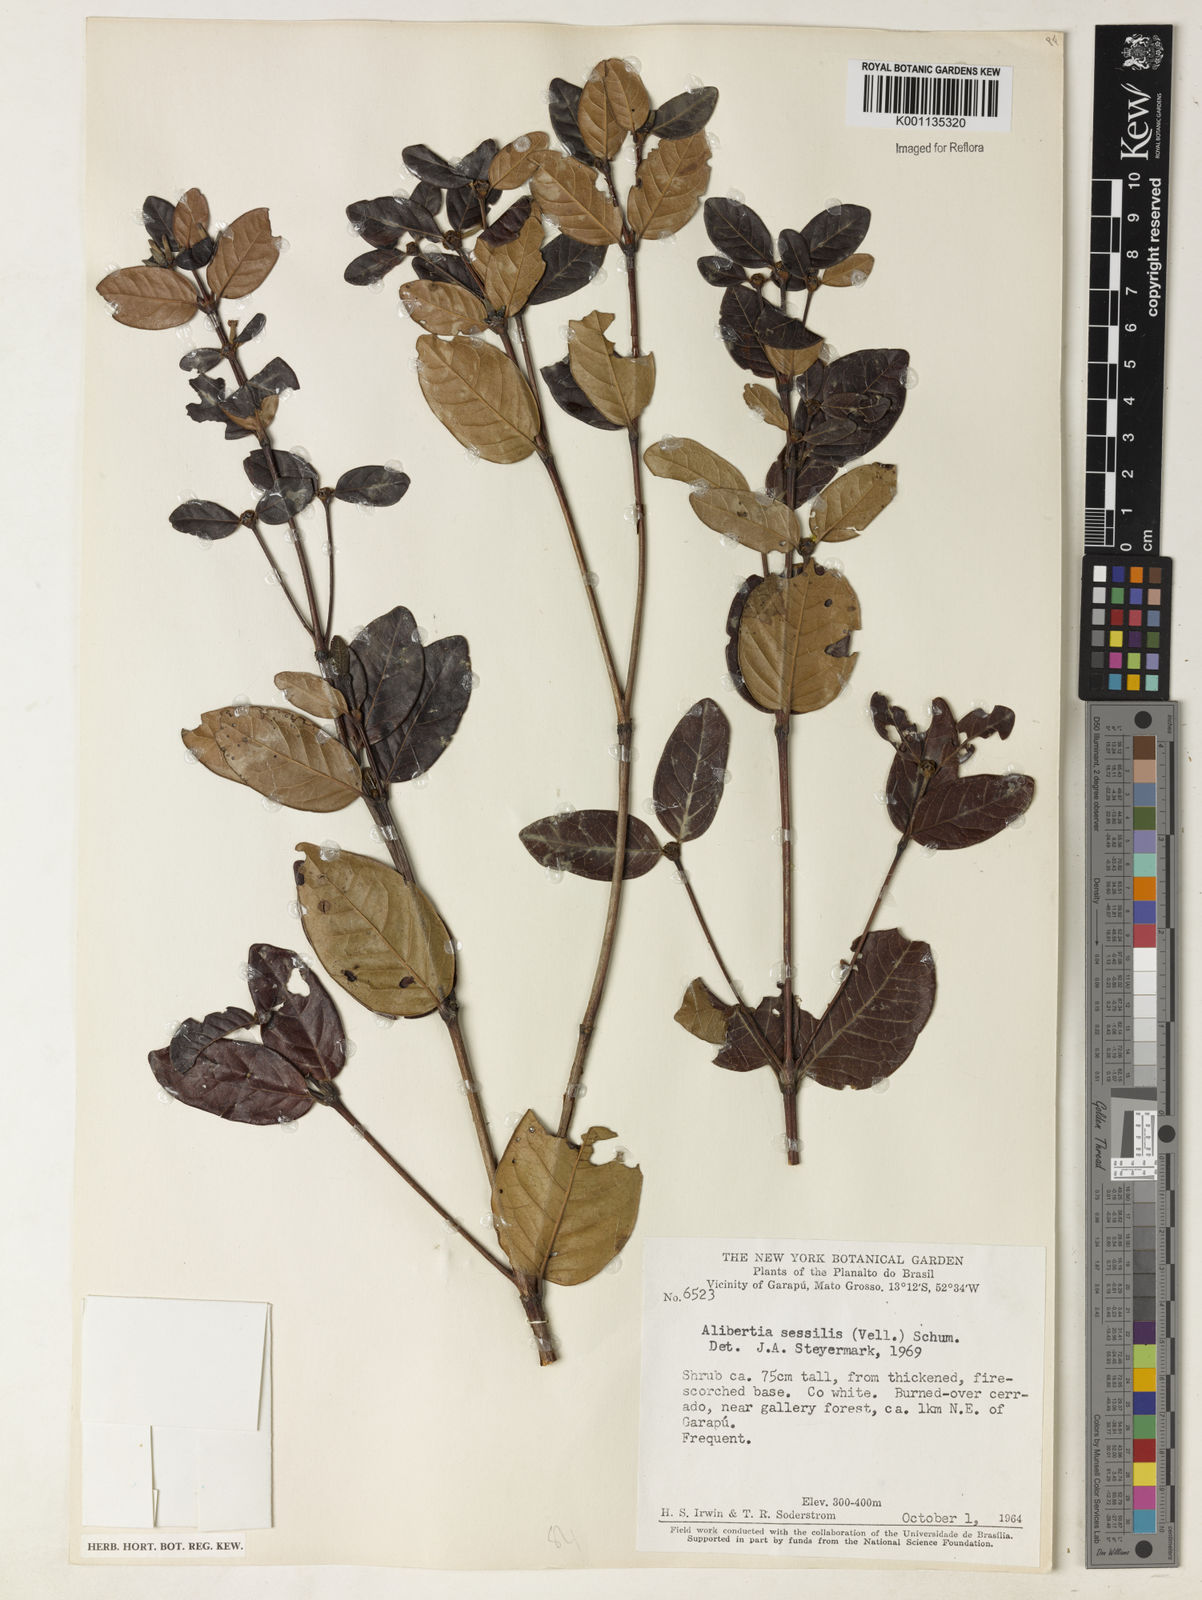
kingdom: Plantae
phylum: Tracheophyta
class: Magnoliopsida
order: Gentianales
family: Rubiaceae
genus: Cordiera
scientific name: Cordiera concolor
